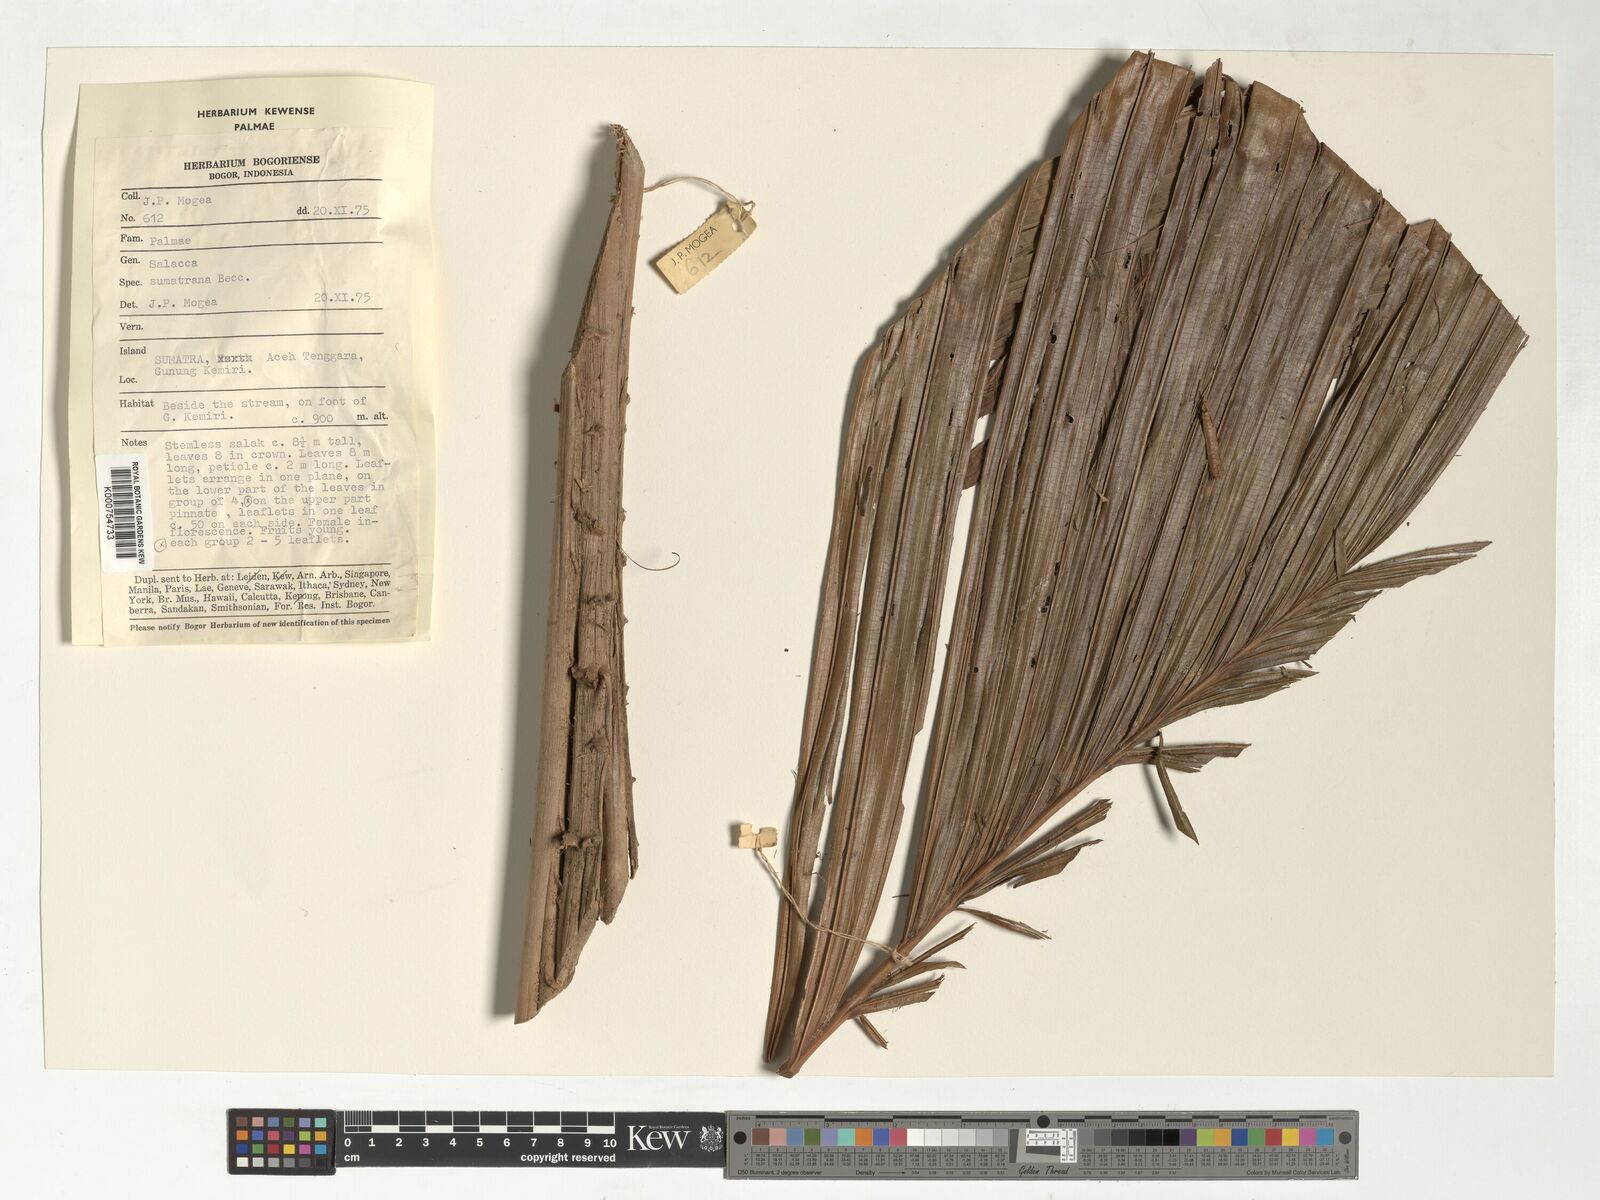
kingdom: Plantae
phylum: Tracheophyta
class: Liliopsida
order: Arecales
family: Arecaceae
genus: Salacca
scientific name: Salacca sumatrana
